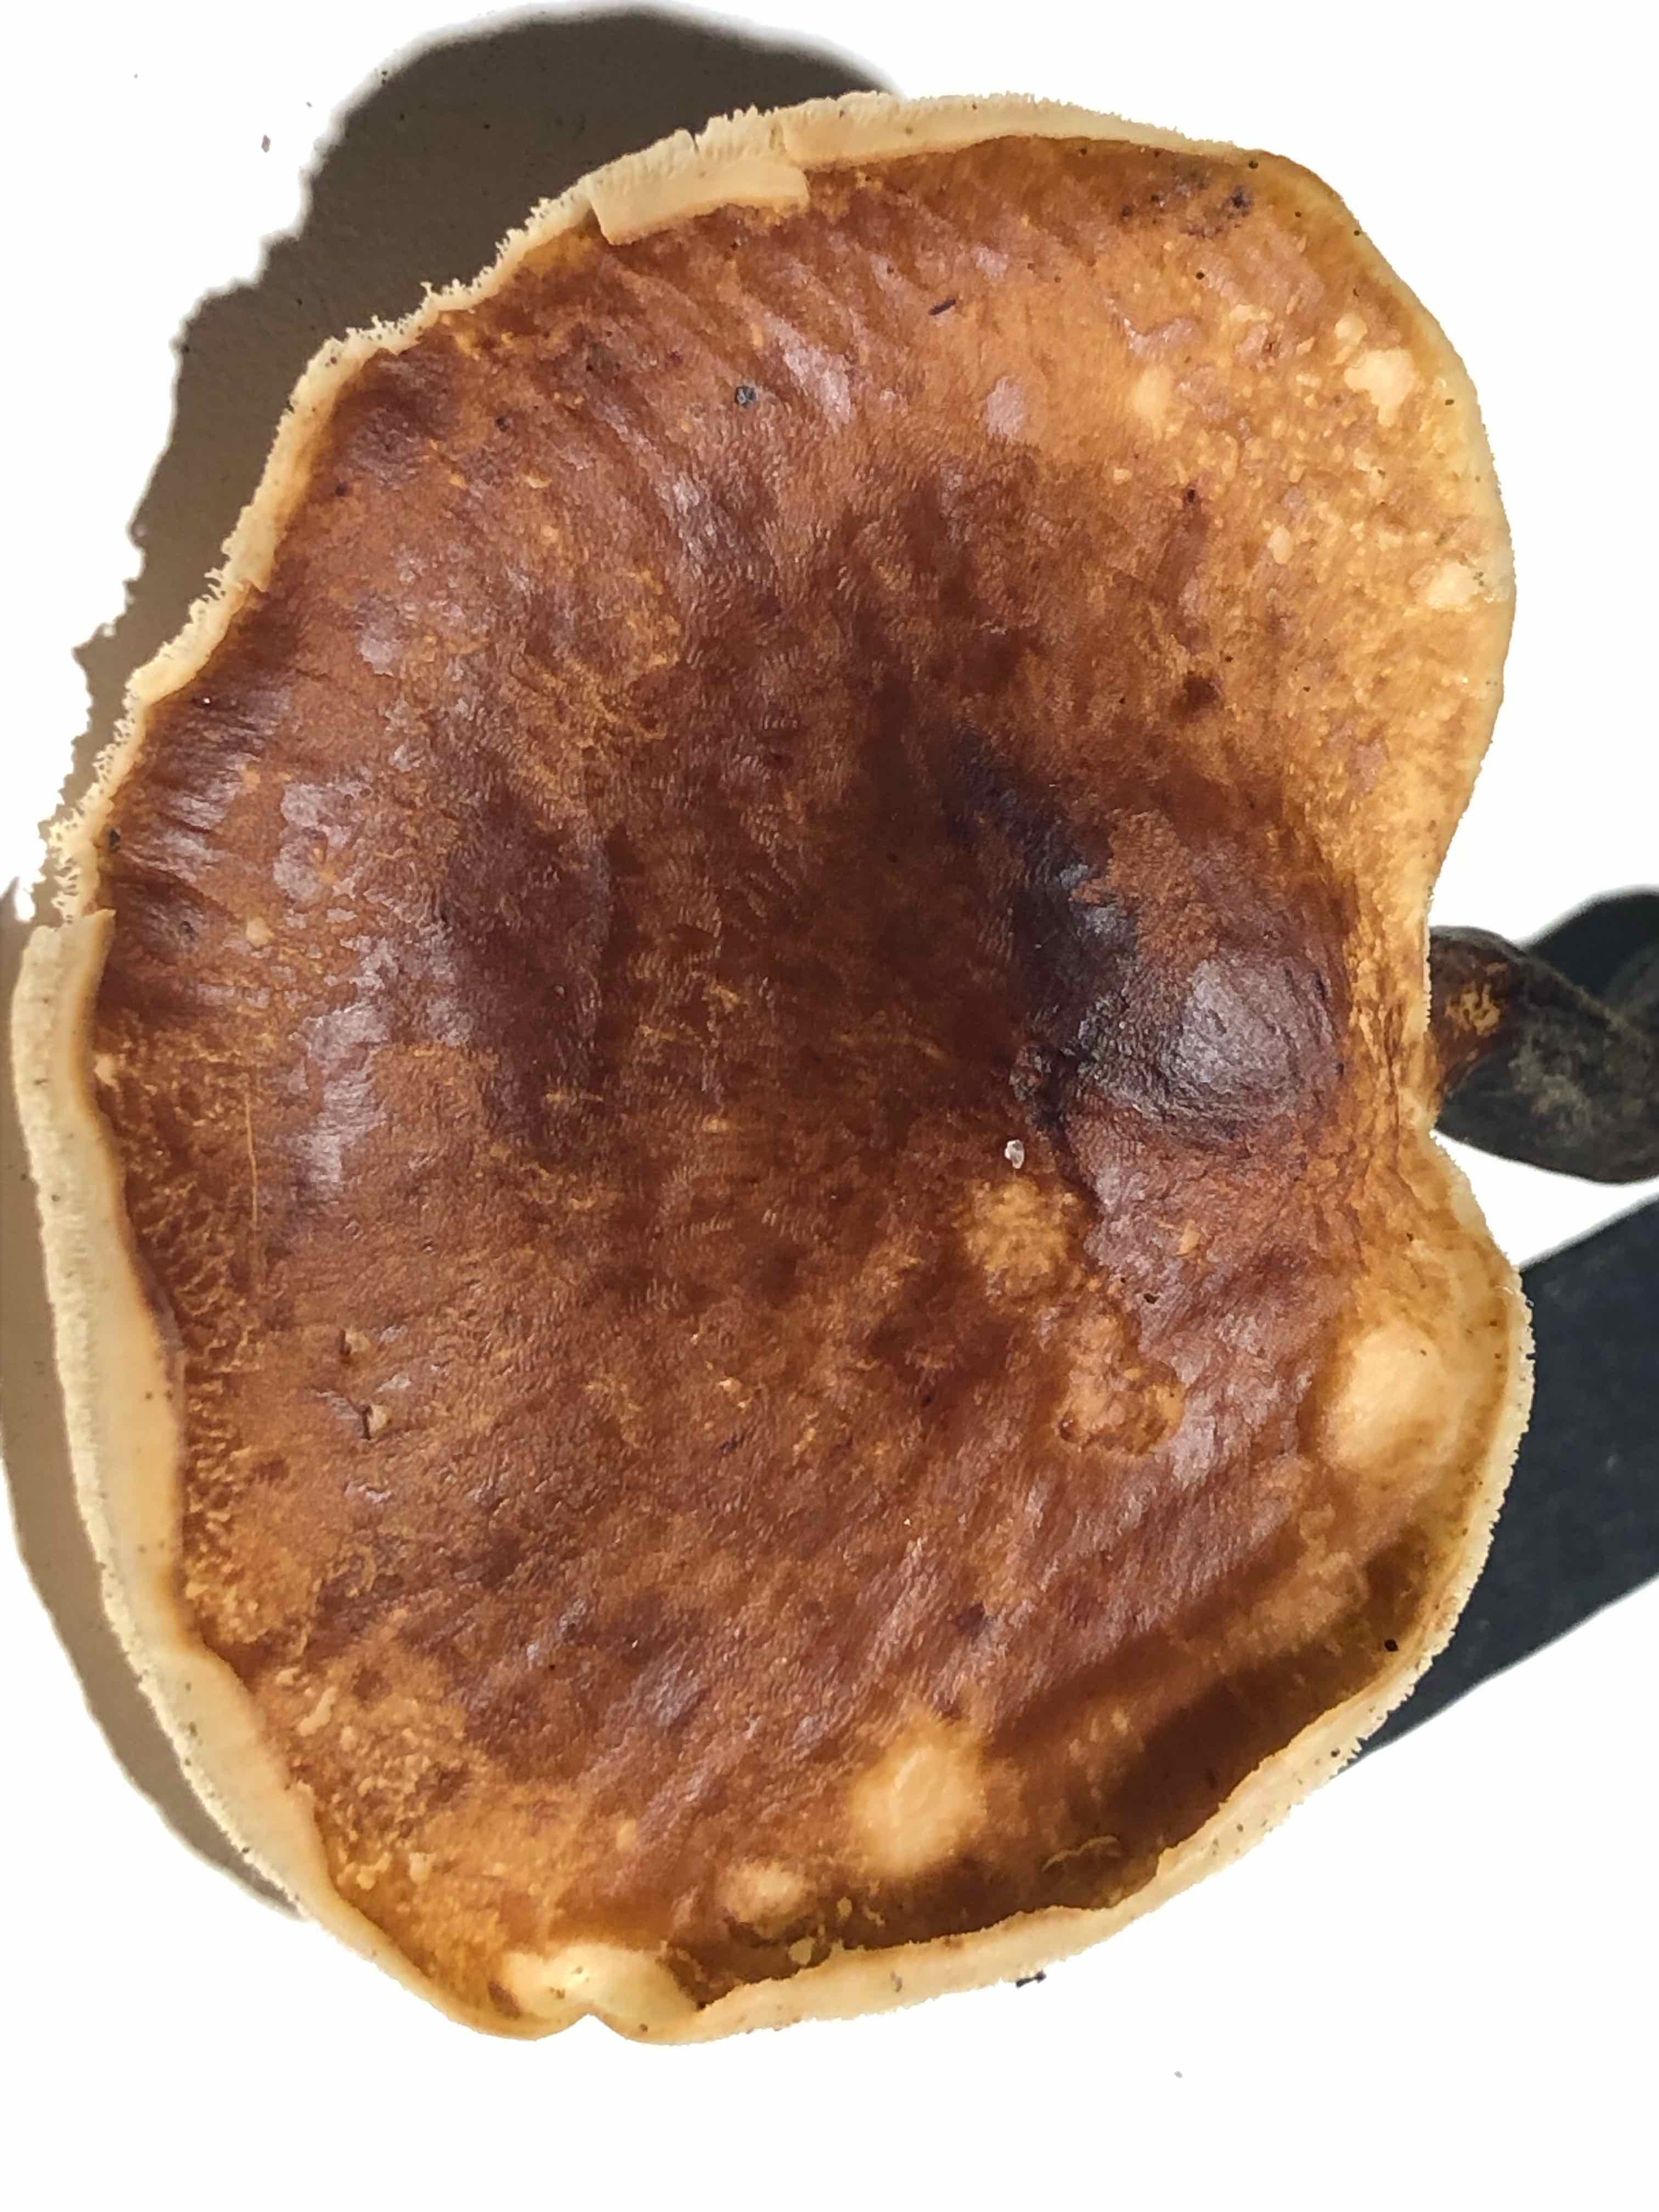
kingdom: Fungi
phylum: Basidiomycota
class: Agaricomycetes
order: Polyporales
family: Polyporaceae
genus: Picipes
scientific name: Picipes badius
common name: kastaniebrun stilkporesvamp
